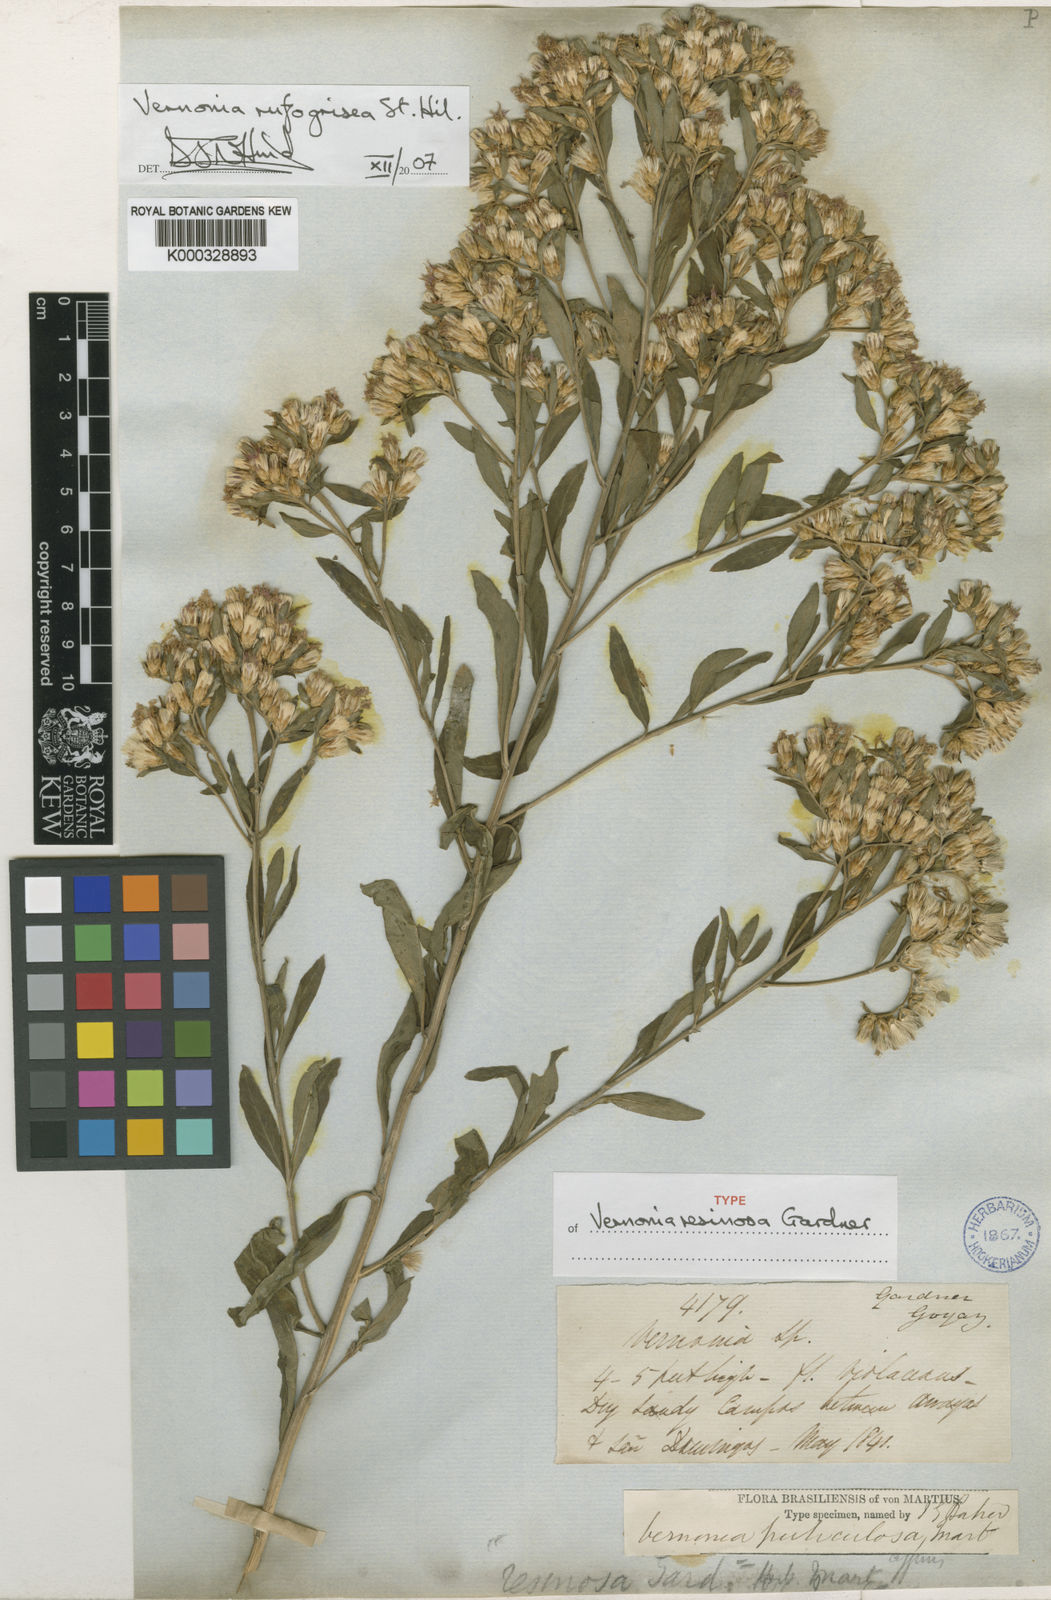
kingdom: Plantae
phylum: Tracheophyta
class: Magnoliopsida
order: Asterales
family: Asteraceae
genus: Lepidaploa
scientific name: Lepidaploa rufogrisea
